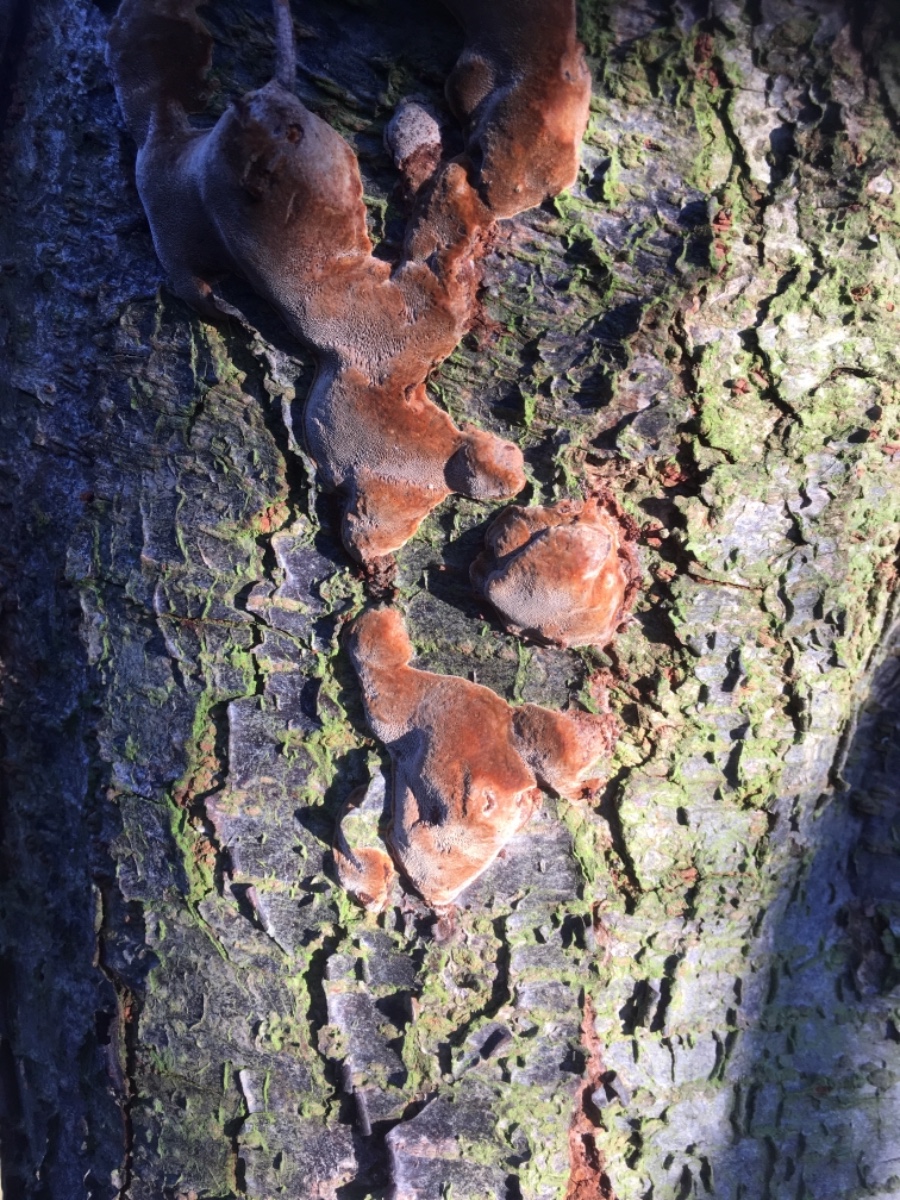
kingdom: Fungi
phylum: Basidiomycota
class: Agaricomycetes
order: Hymenochaetales
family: Hymenochaetaceae
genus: Phellinus
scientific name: Phellinus pomaceus
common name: blomme-ildporesvamp
